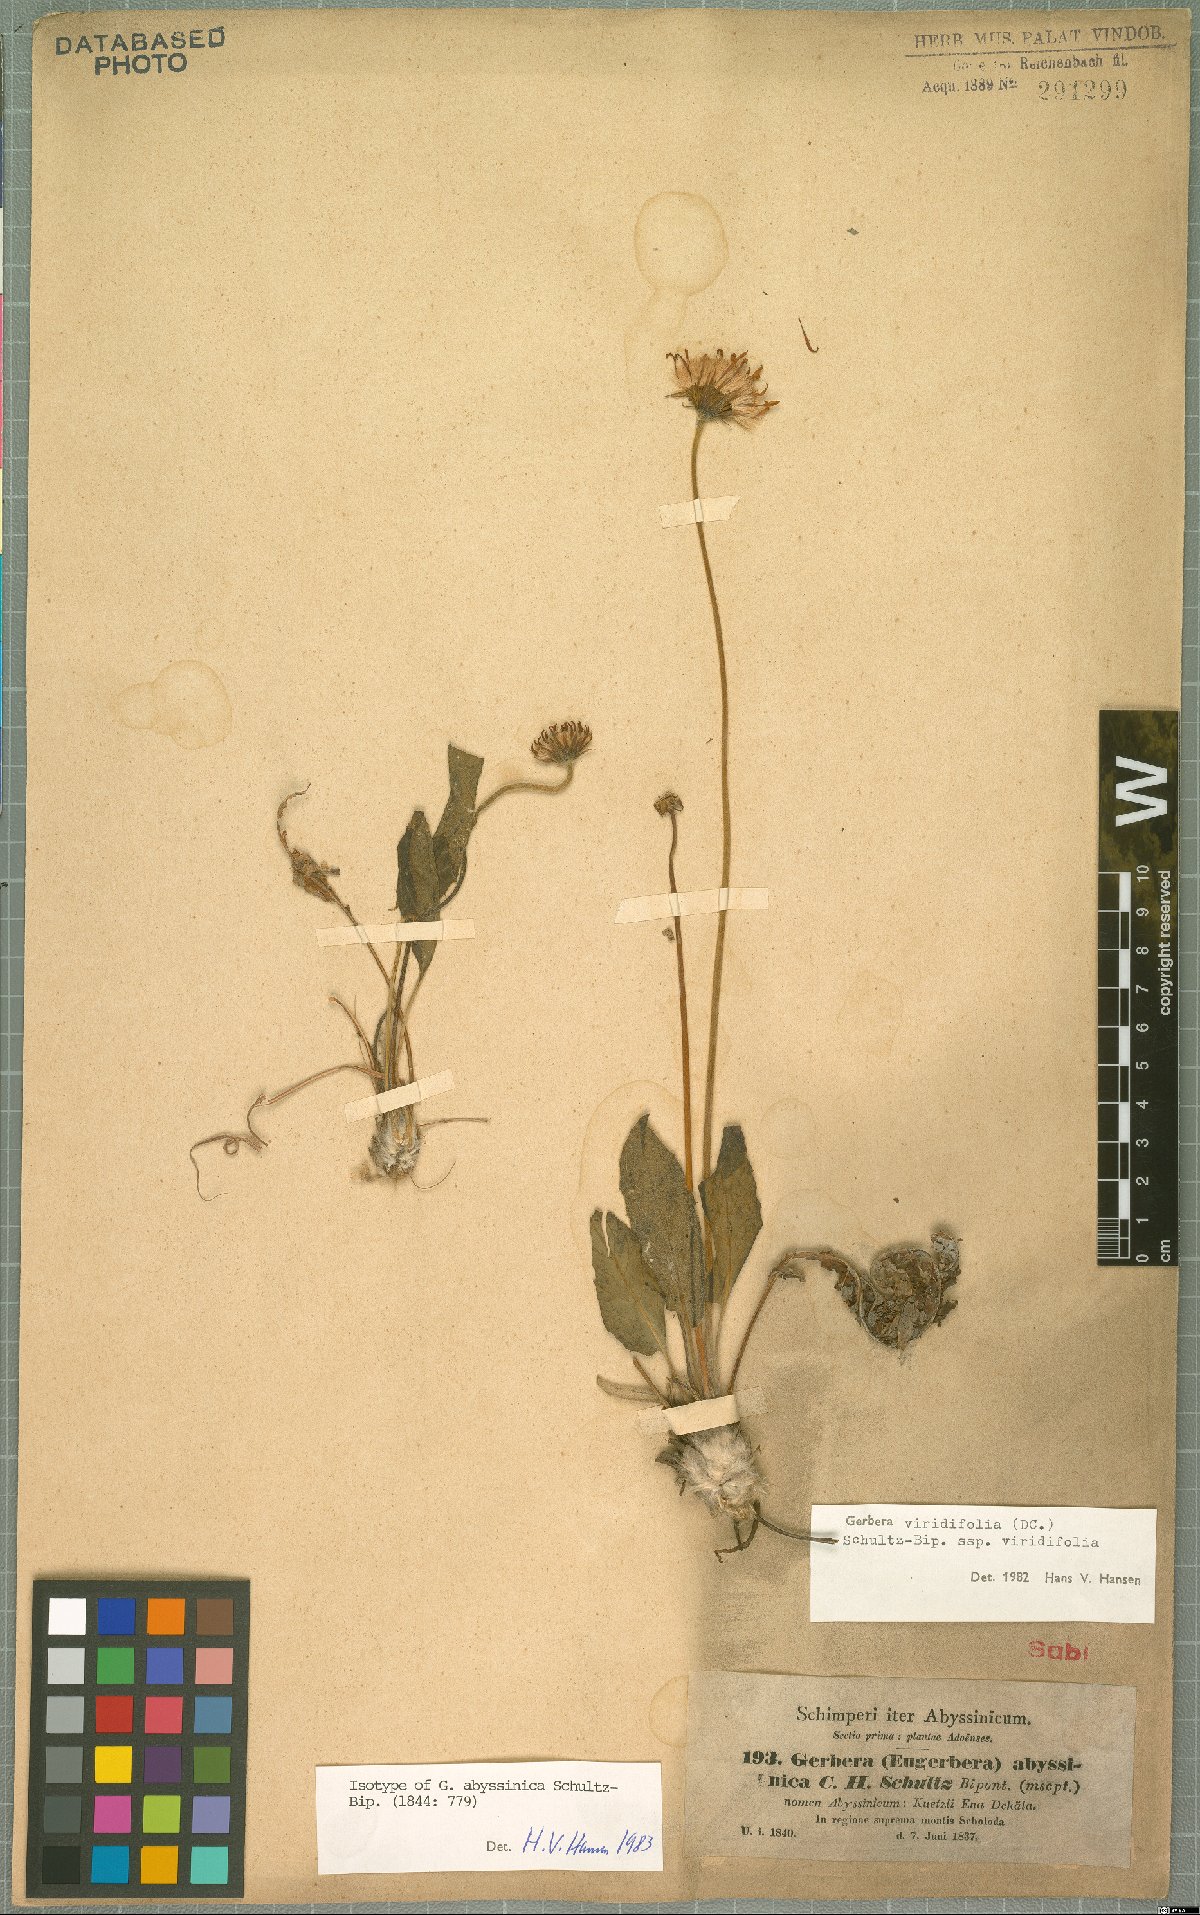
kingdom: Plantae
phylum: Tracheophyta
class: Magnoliopsida
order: Asterales
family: Asteraceae
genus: Gerbera
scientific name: Gerbera viridifolia
